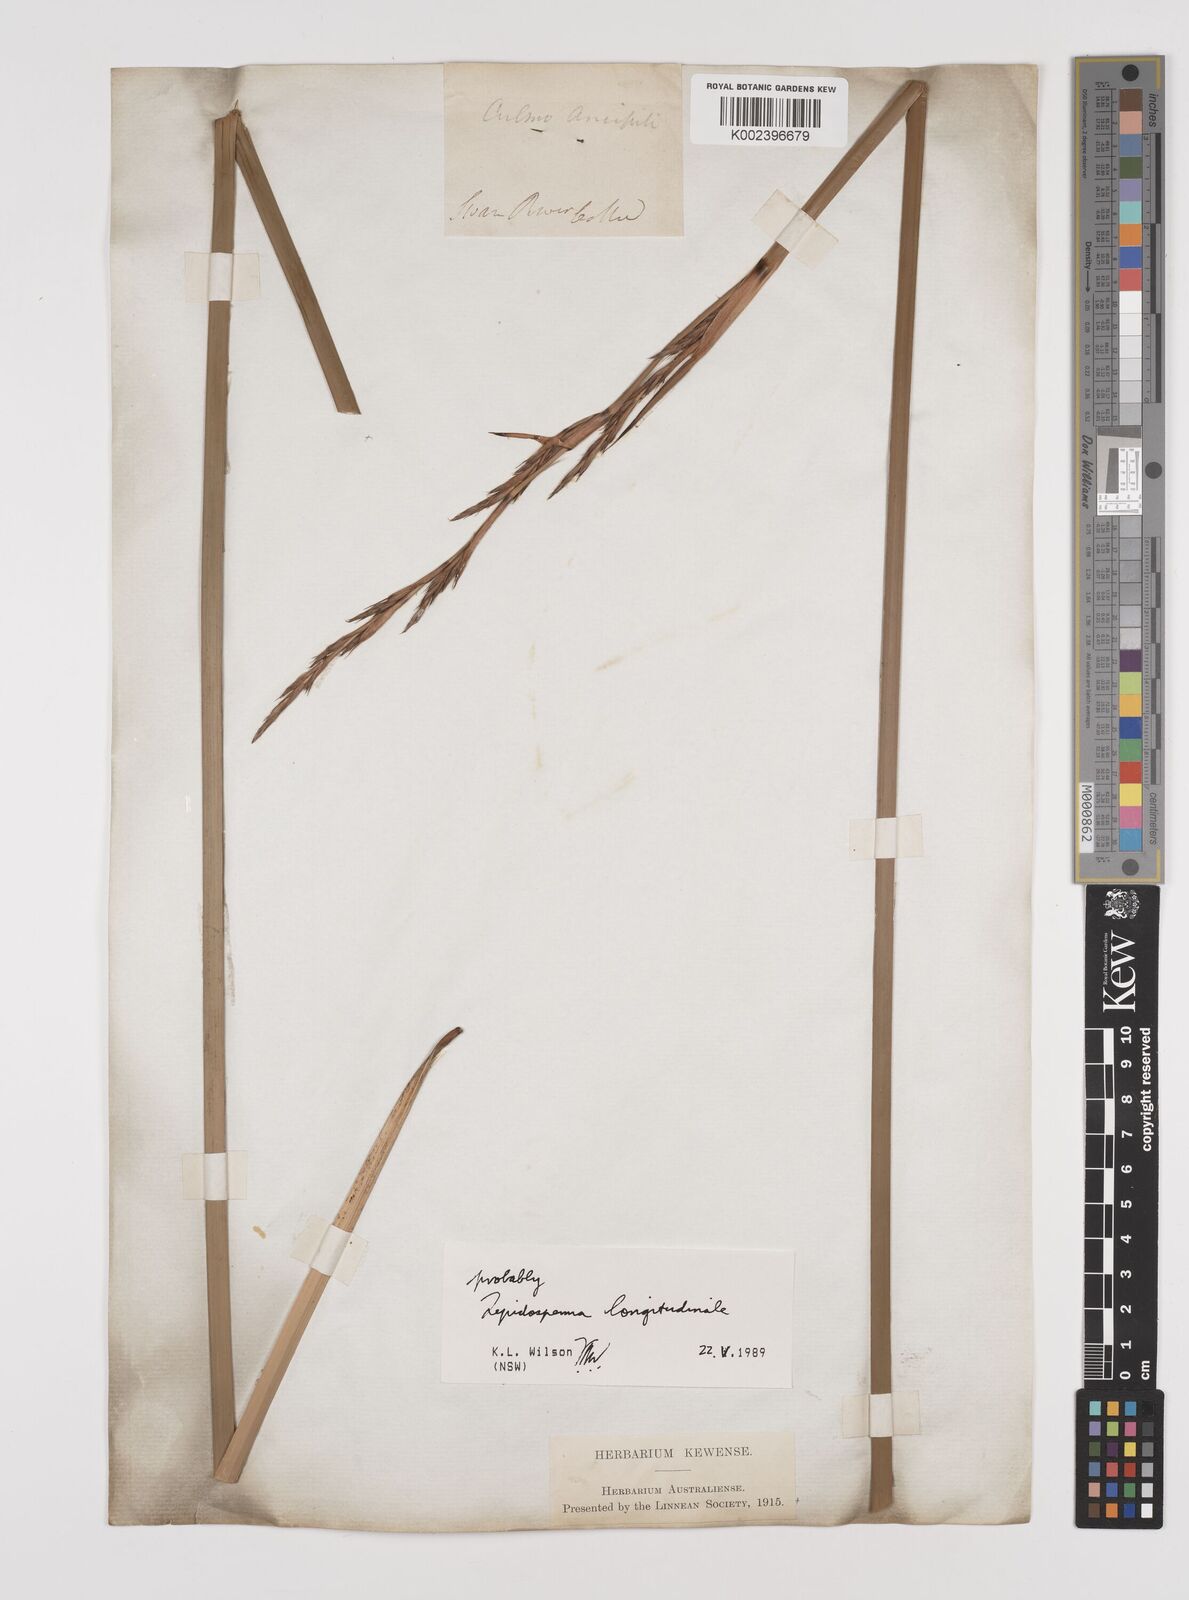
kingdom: Plantae
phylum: Tracheophyta
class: Liliopsida
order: Poales
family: Cyperaceae
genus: Lepidosperma
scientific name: Lepidosperma longitudinale
